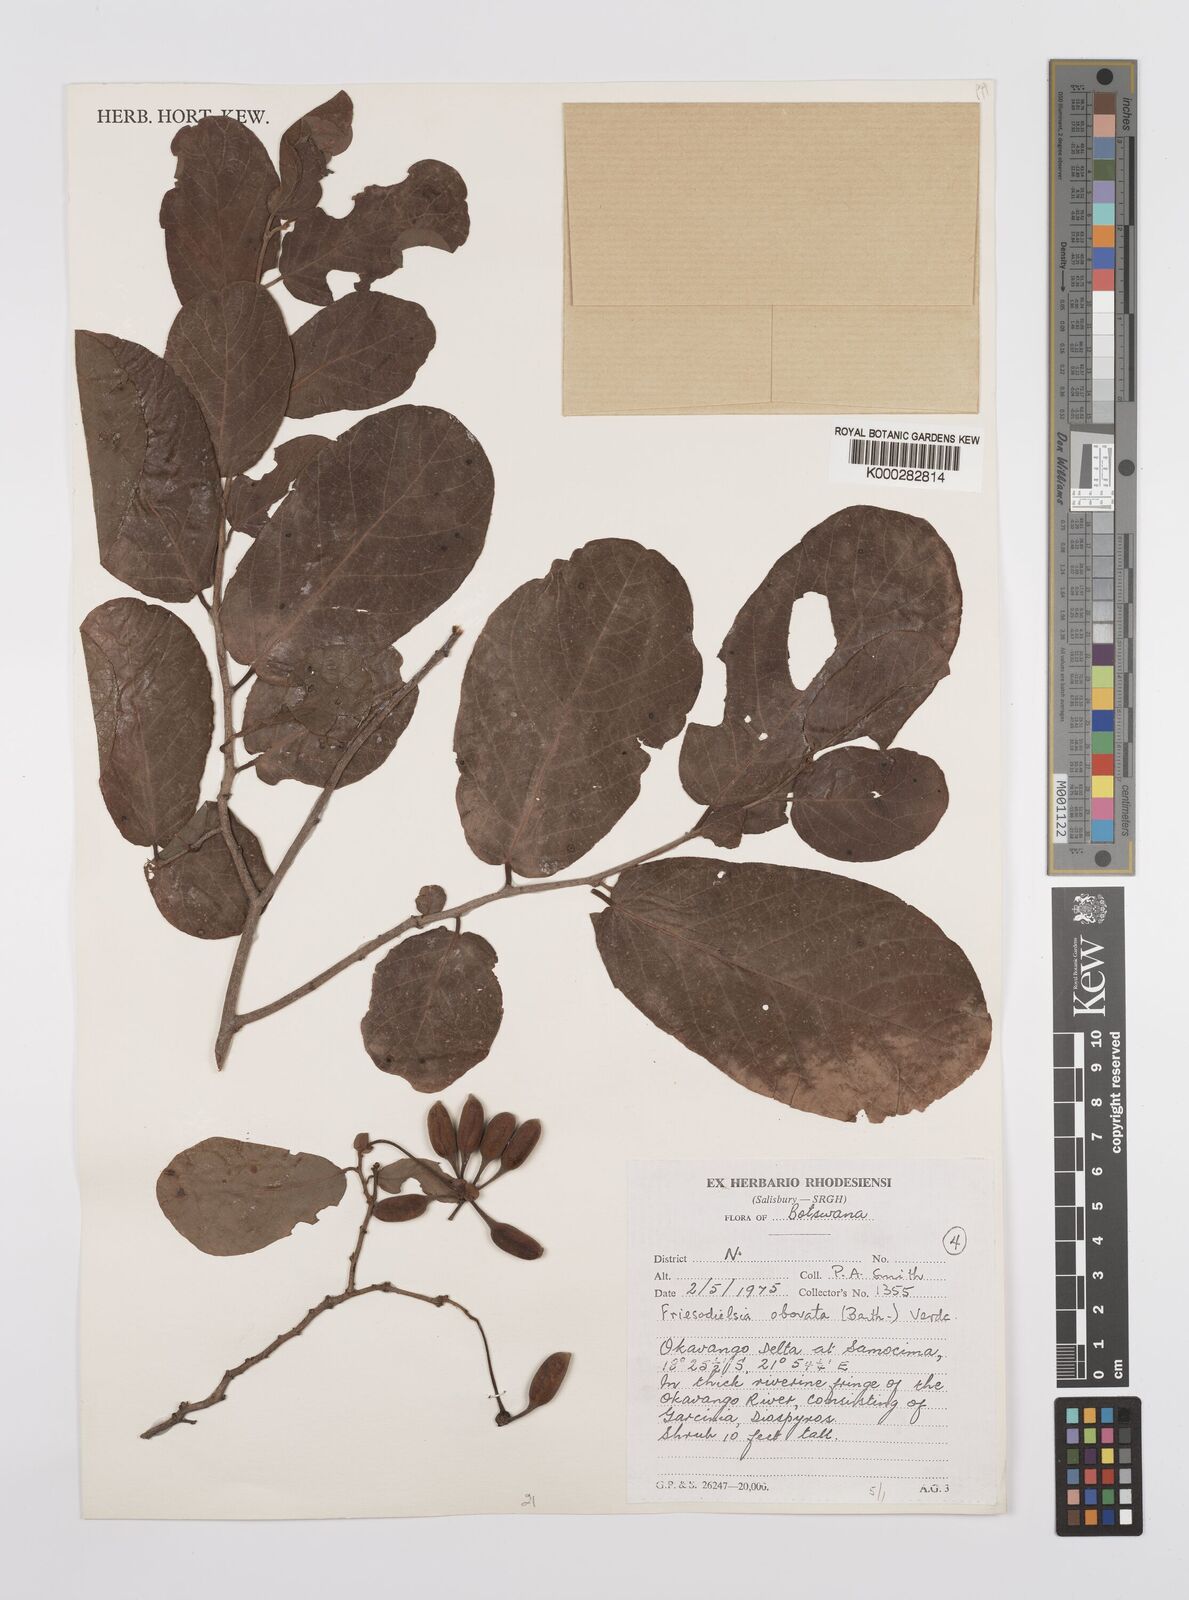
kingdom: Plantae
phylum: Tracheophyta
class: Magnoliopsida
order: Magnoliales
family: Annonaceae
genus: Friesodielsia
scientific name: Friesodielsia obovata
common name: Monkey fingers
